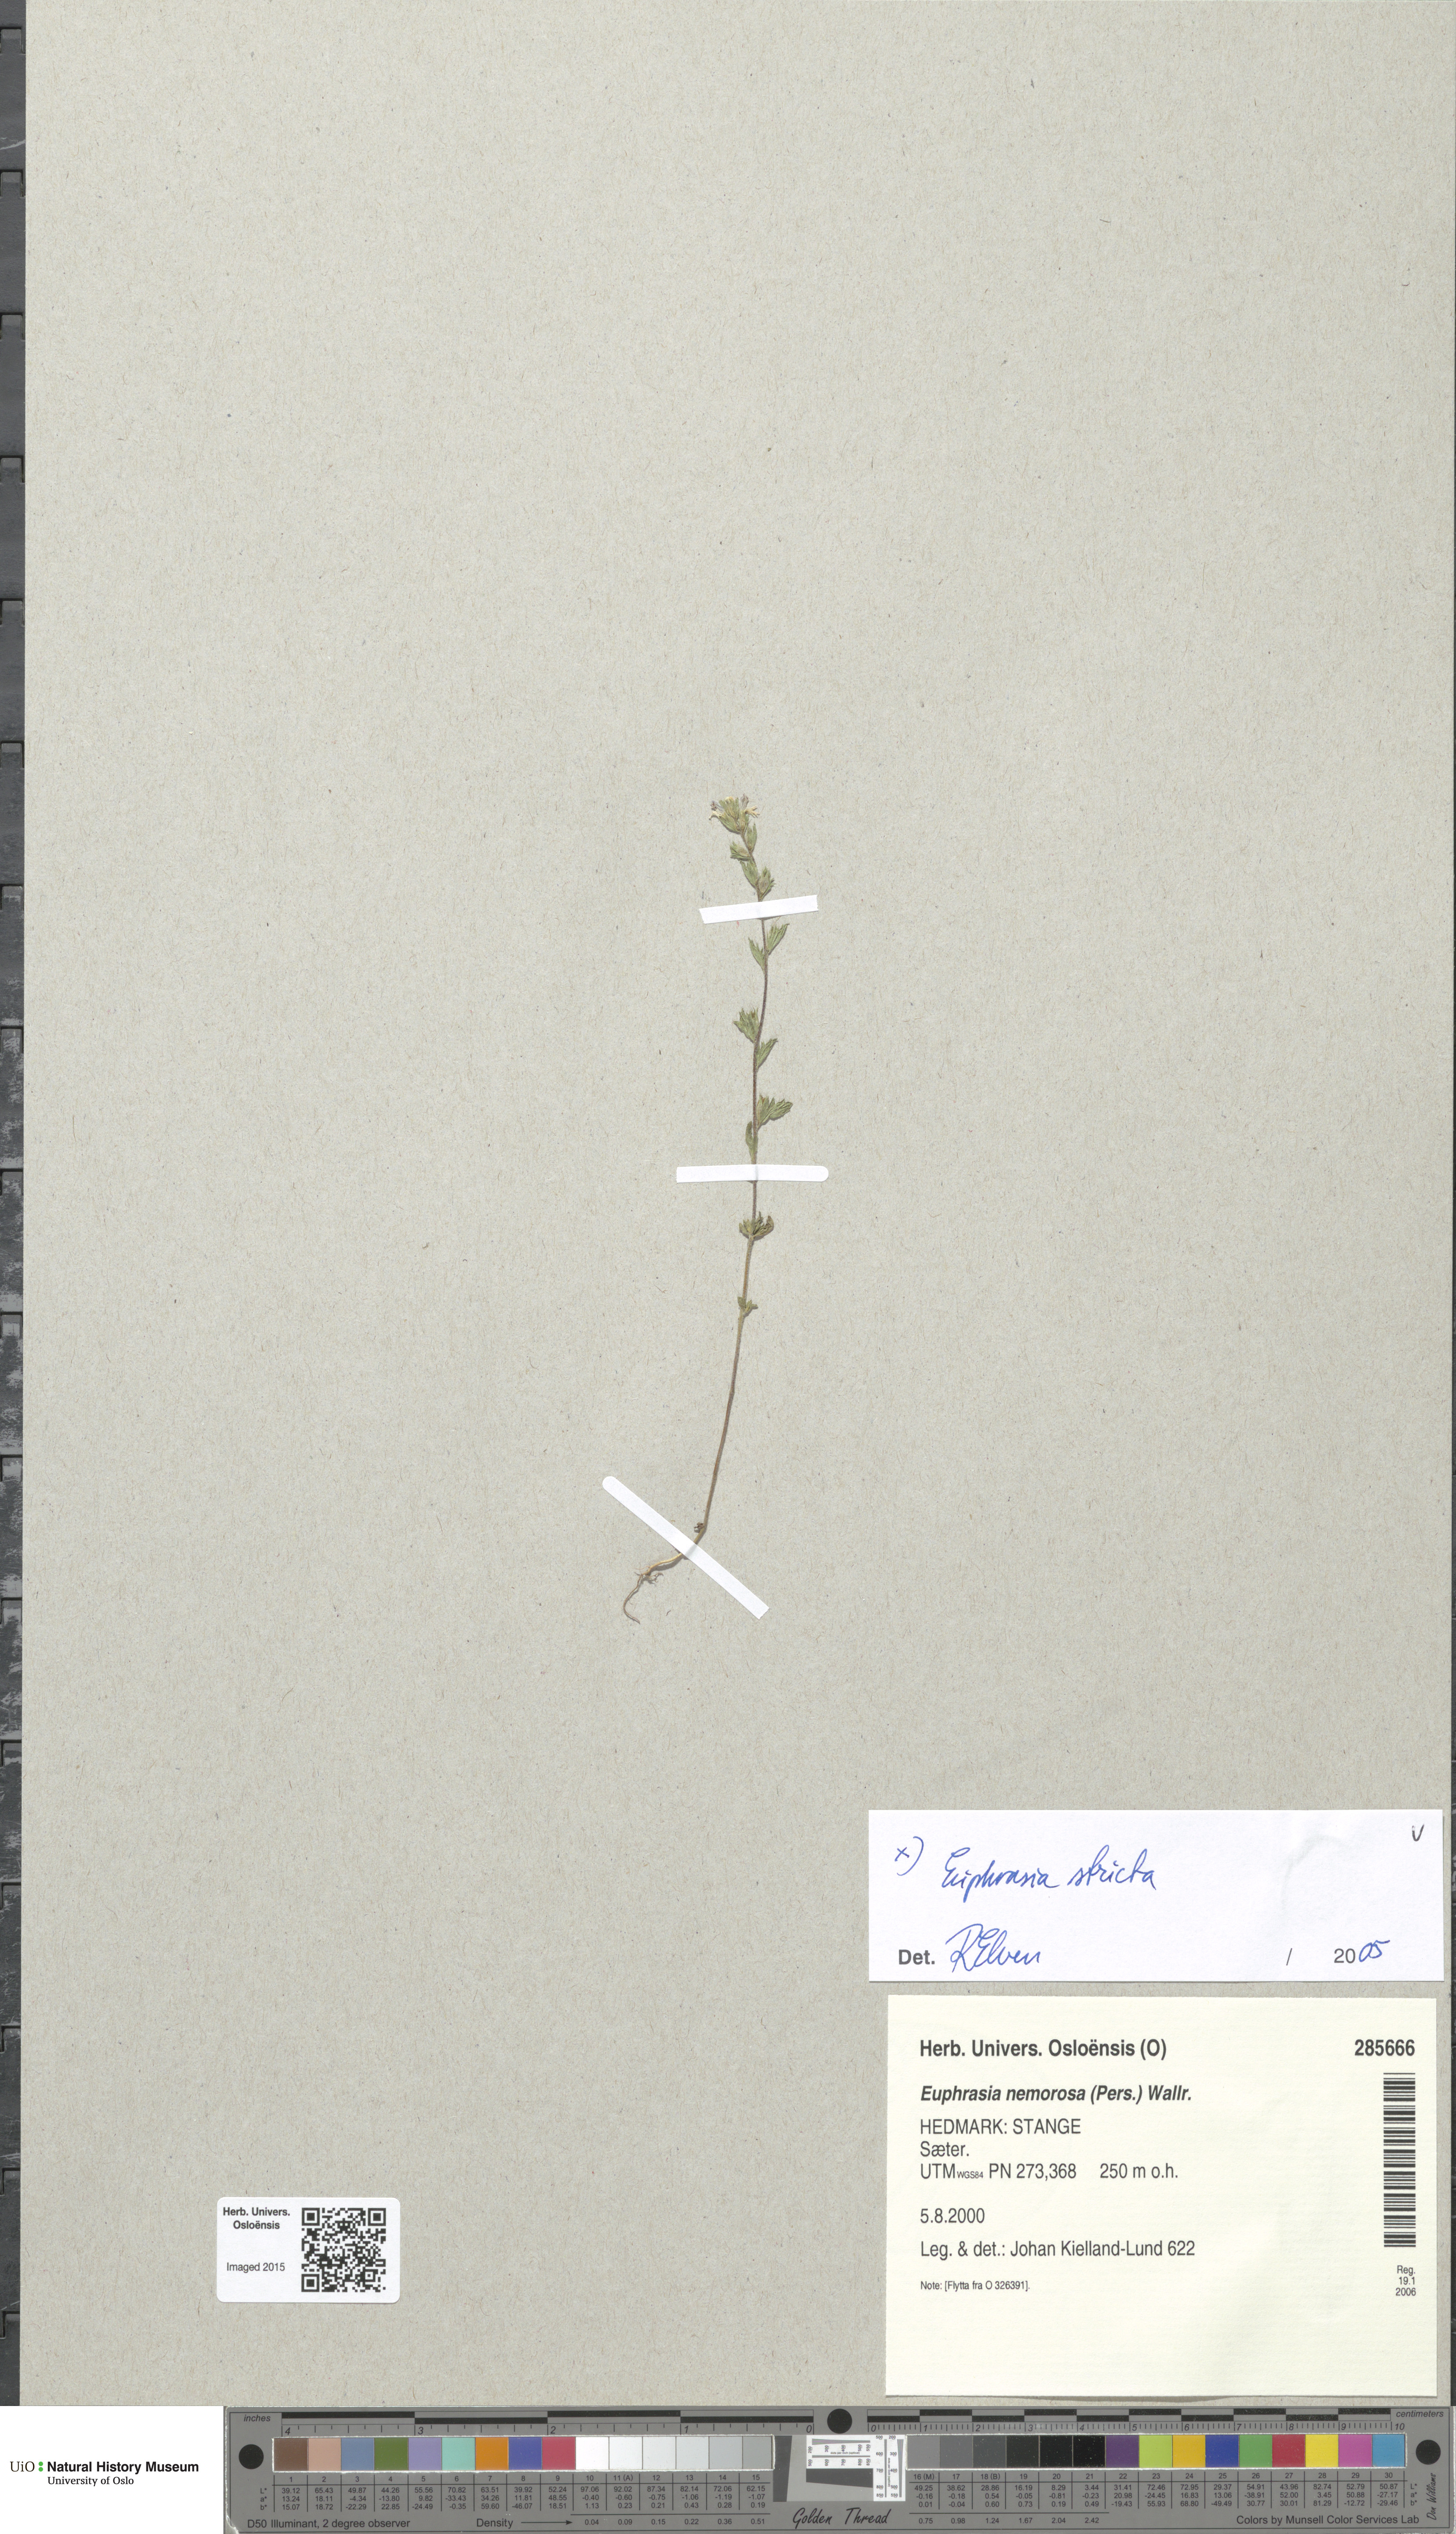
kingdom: Plantae
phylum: Tracheophyta
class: Magnoliopsida
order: Lamiales
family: Orobanchaceae
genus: Euphrasia
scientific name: Euphrasia stricta
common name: Drug eyebright
